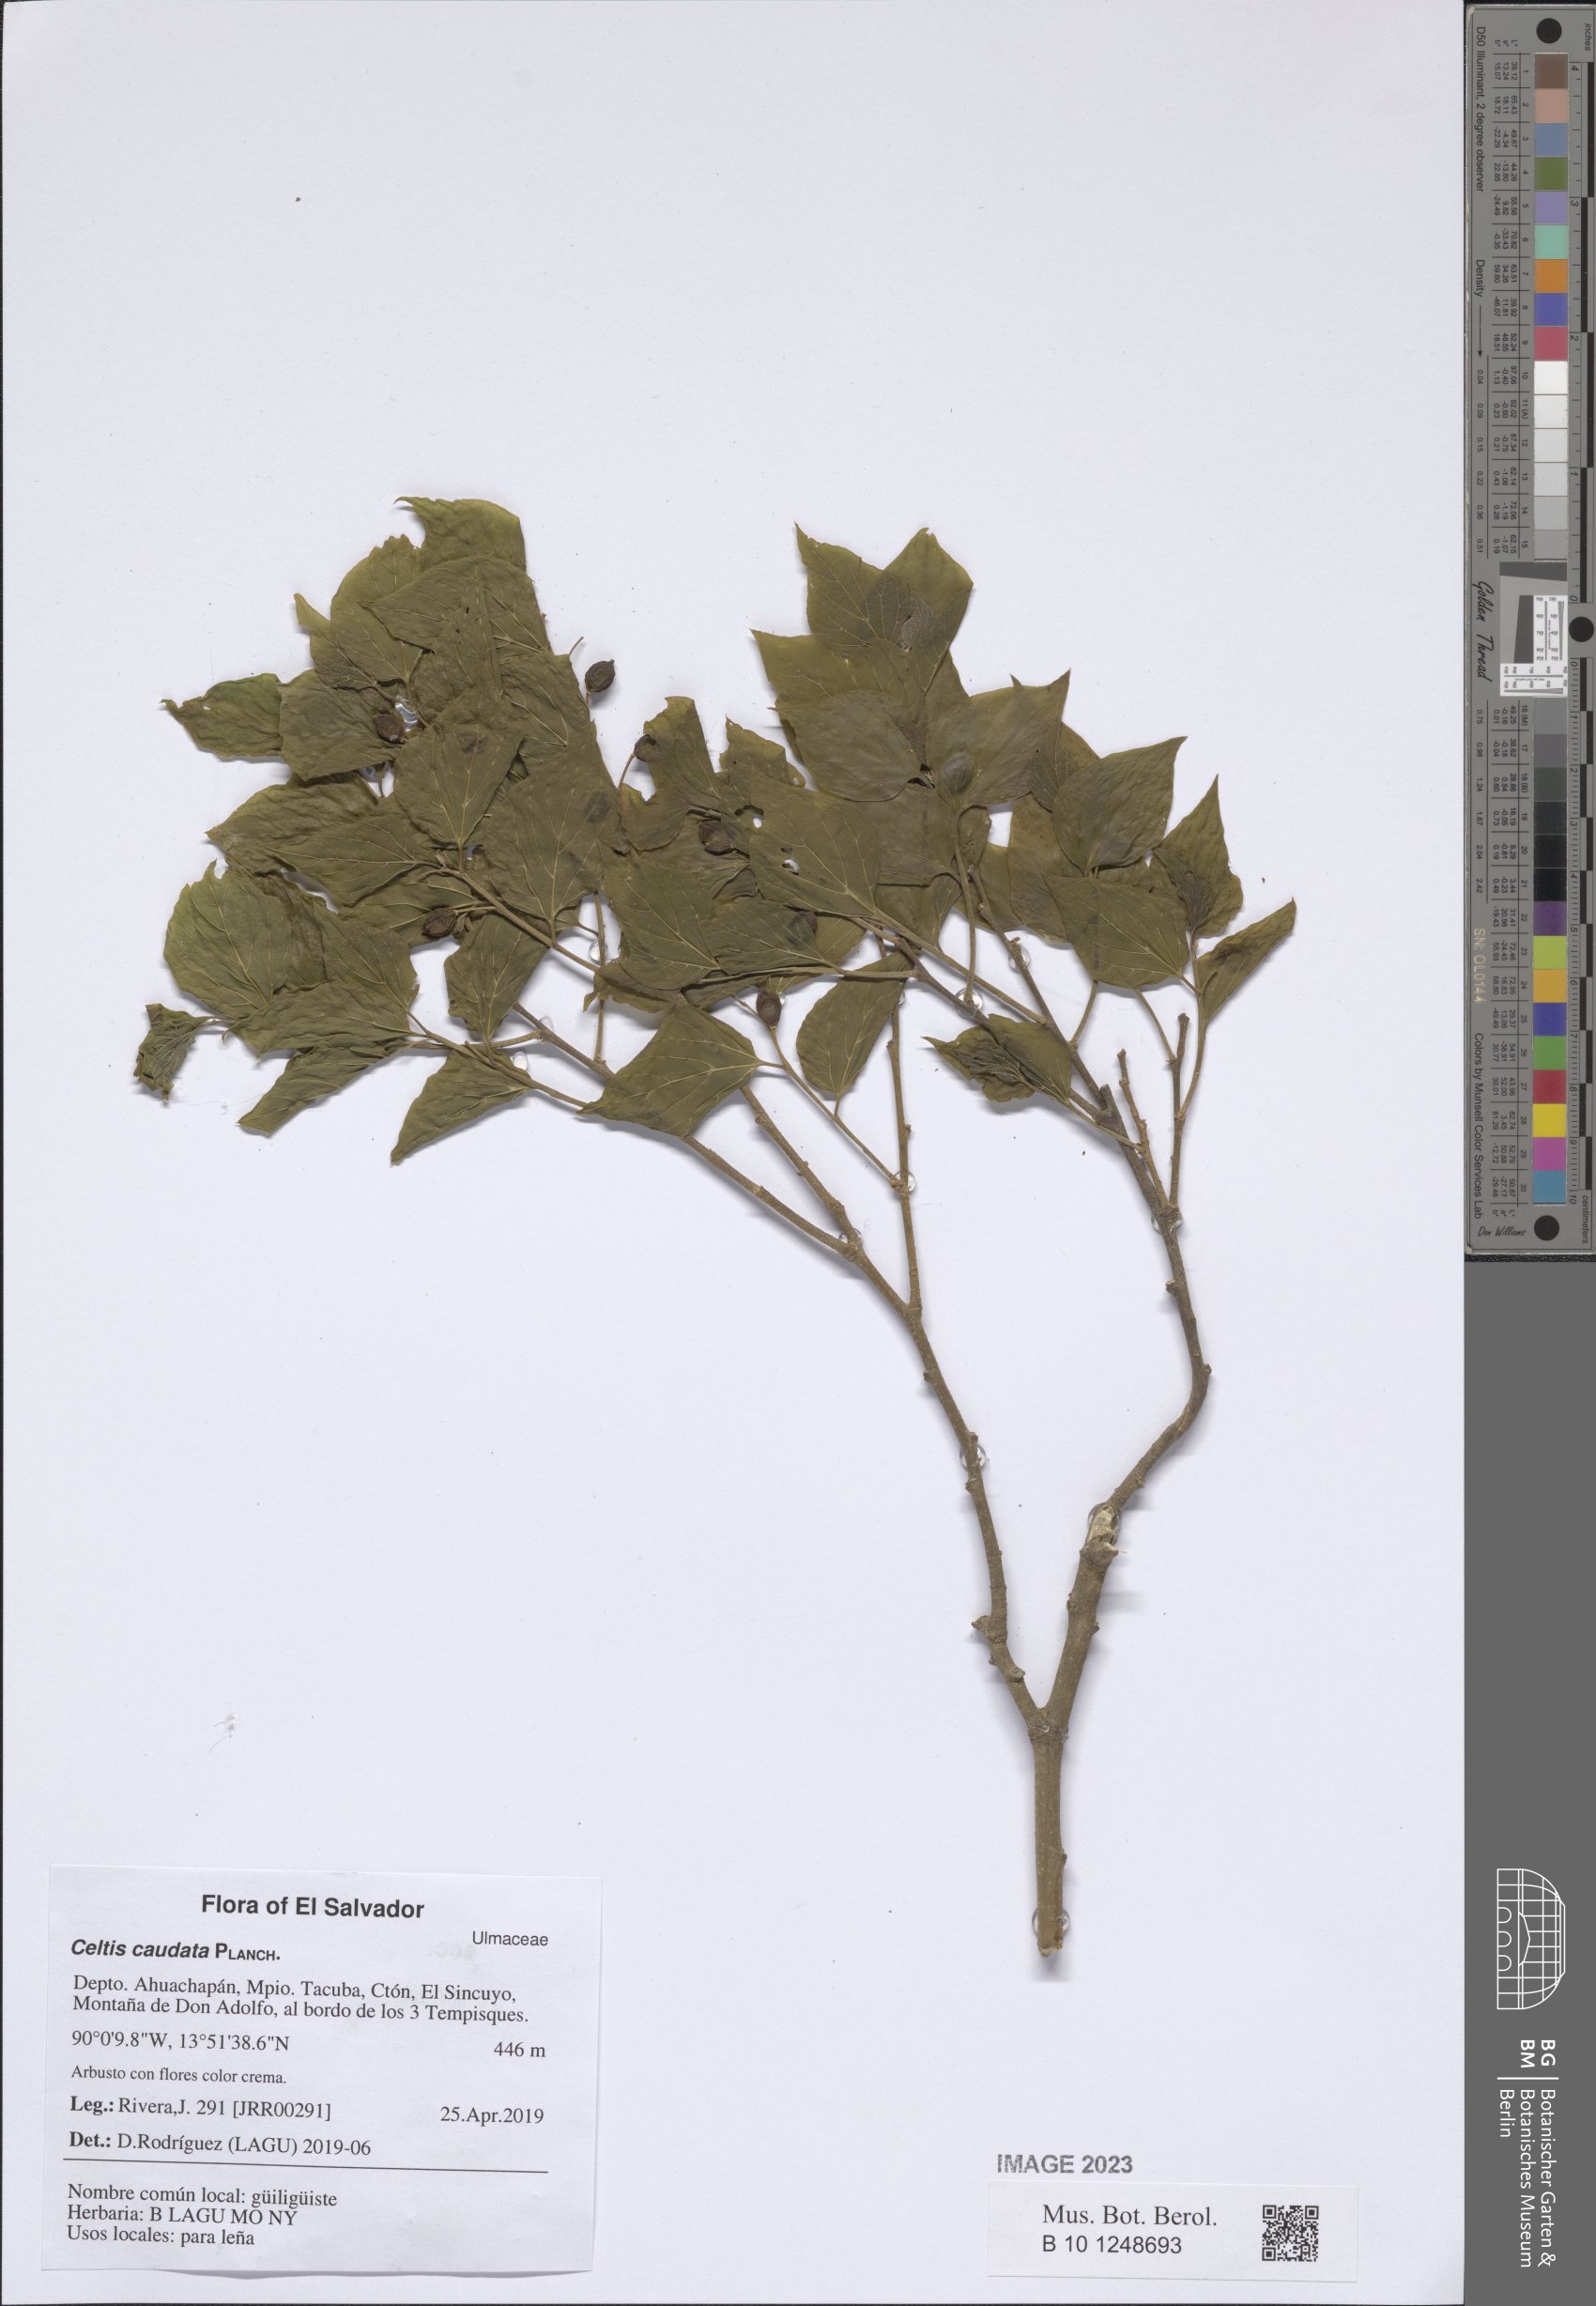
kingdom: Plantae
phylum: Tracheophyta
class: Magnoliopsida
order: Rosales
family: Cannabaceae
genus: Celtis
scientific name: Celtis caudata
